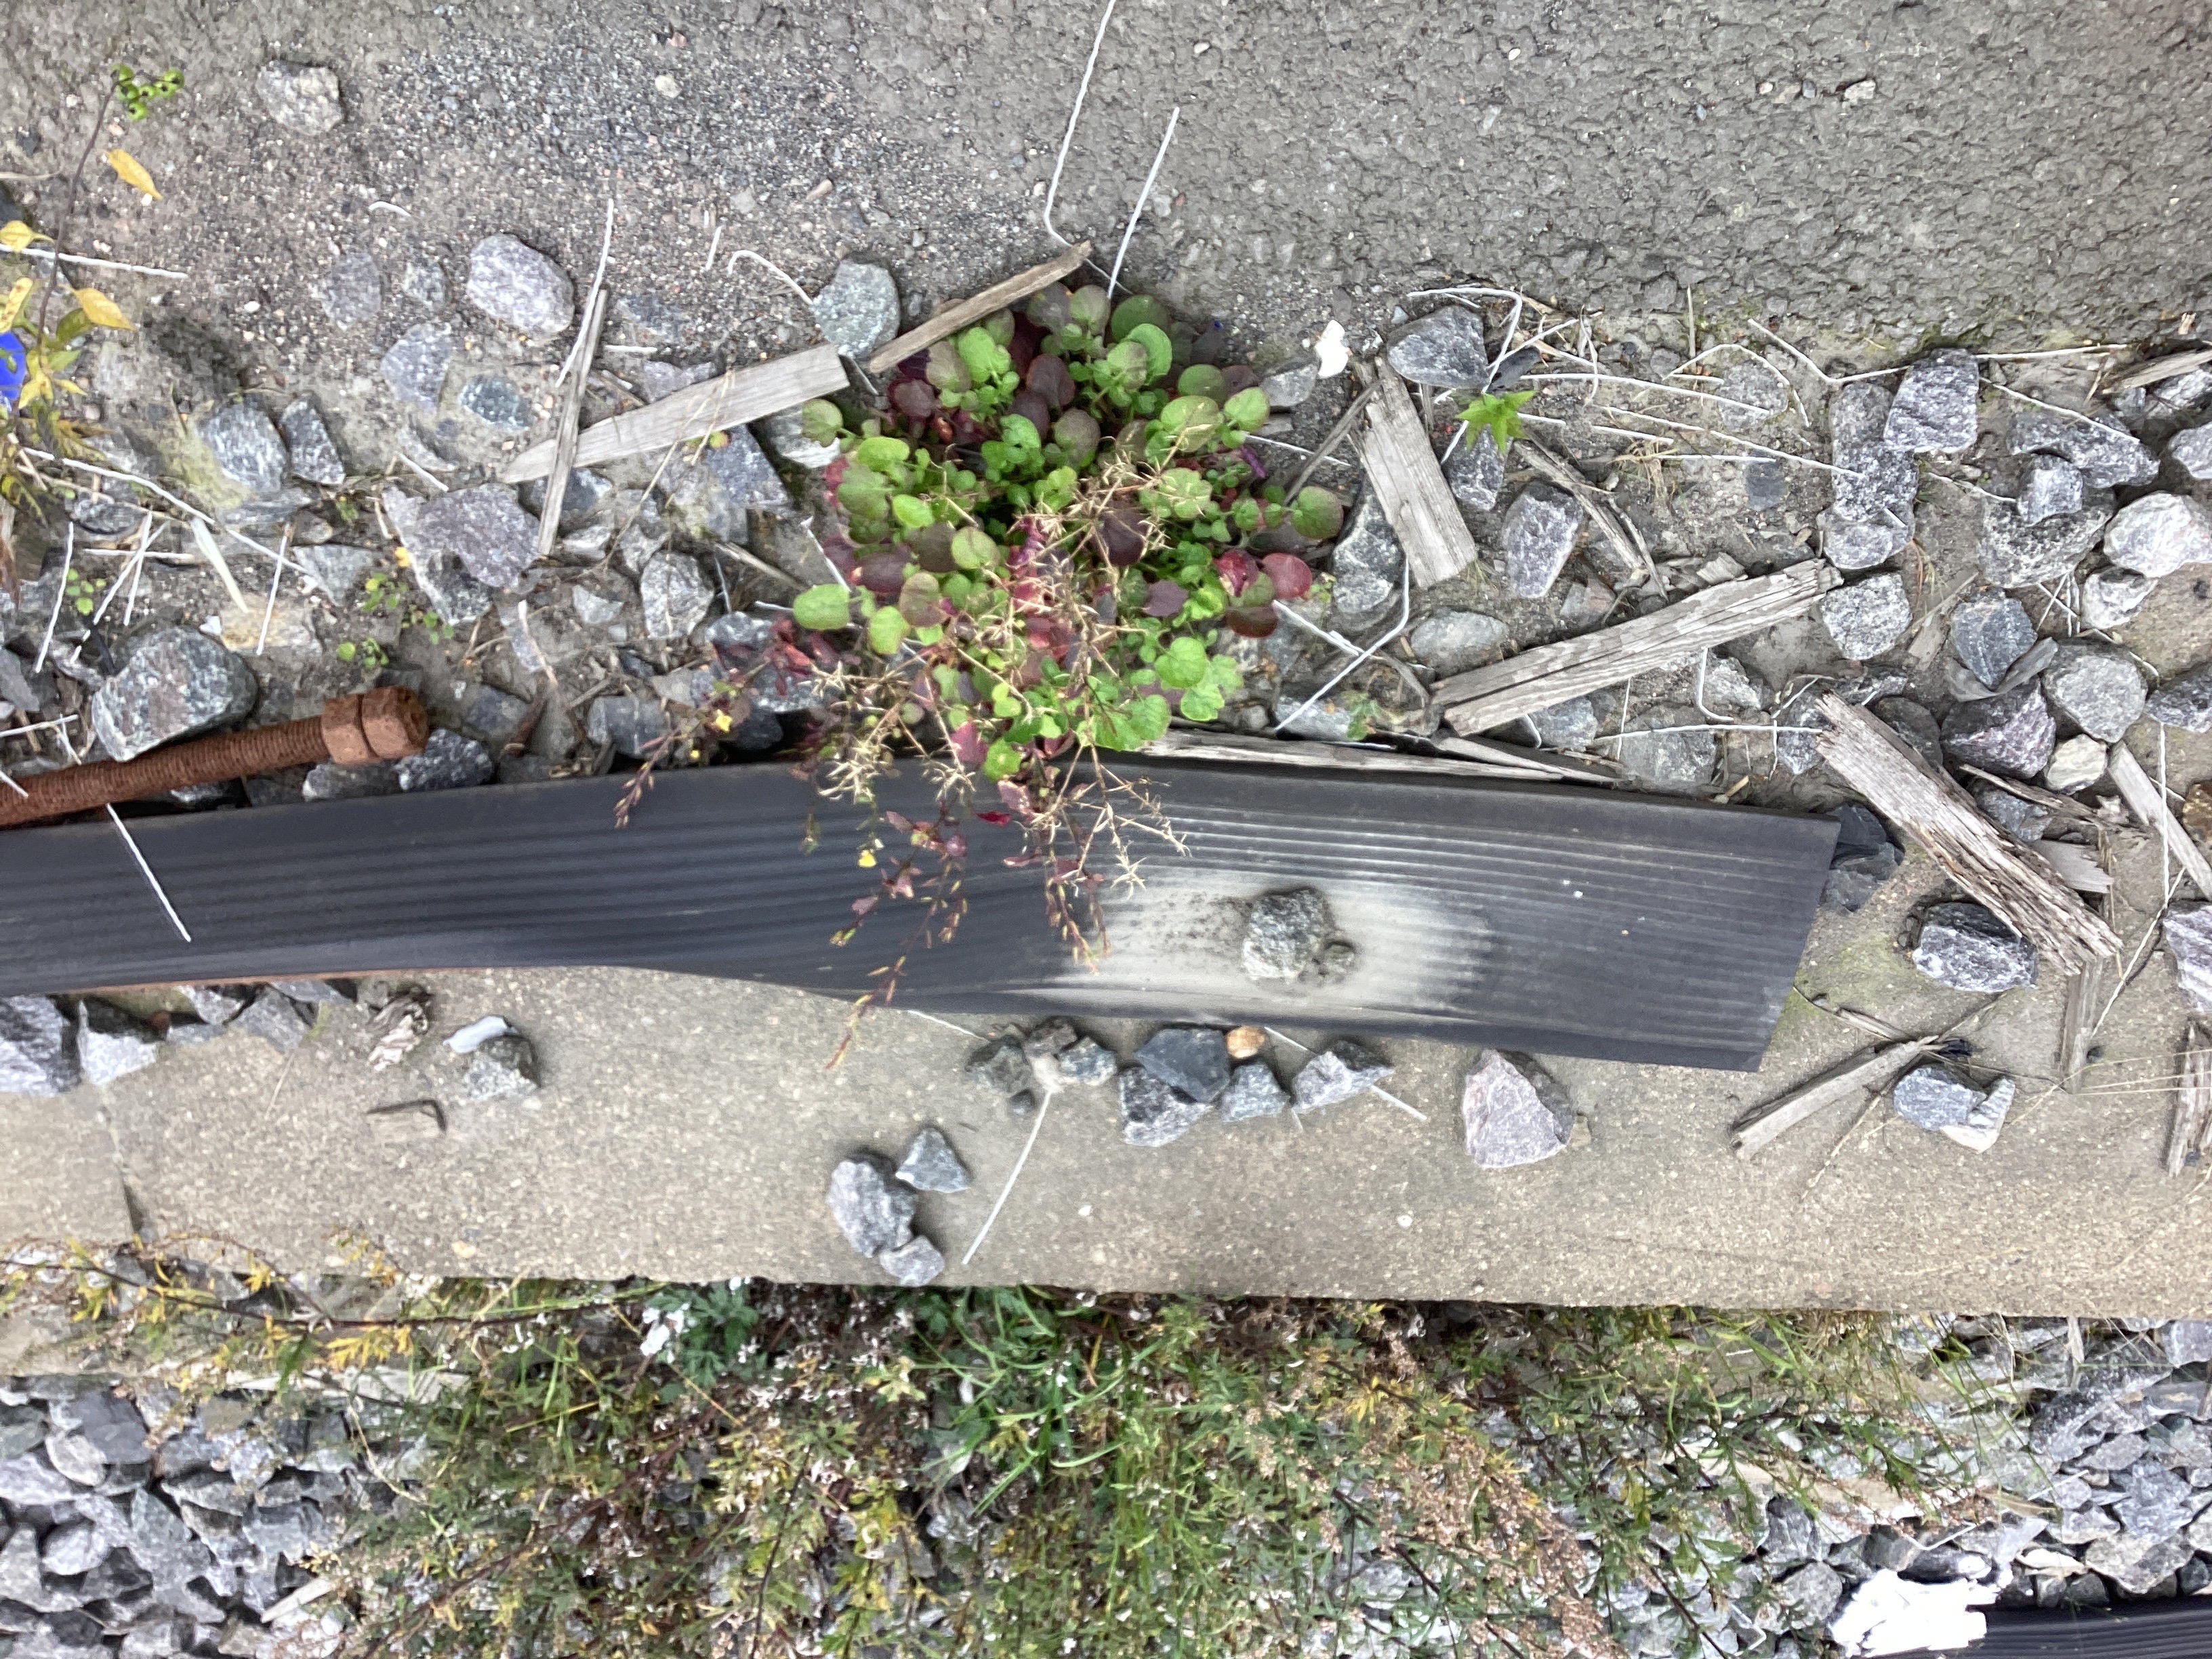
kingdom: Plantae
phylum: Tracheophyta
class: Magnoliopsida
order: Brassicales
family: Brassicaceae
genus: Barbarea
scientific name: Barbarea vulgaris
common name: vinterkarse
